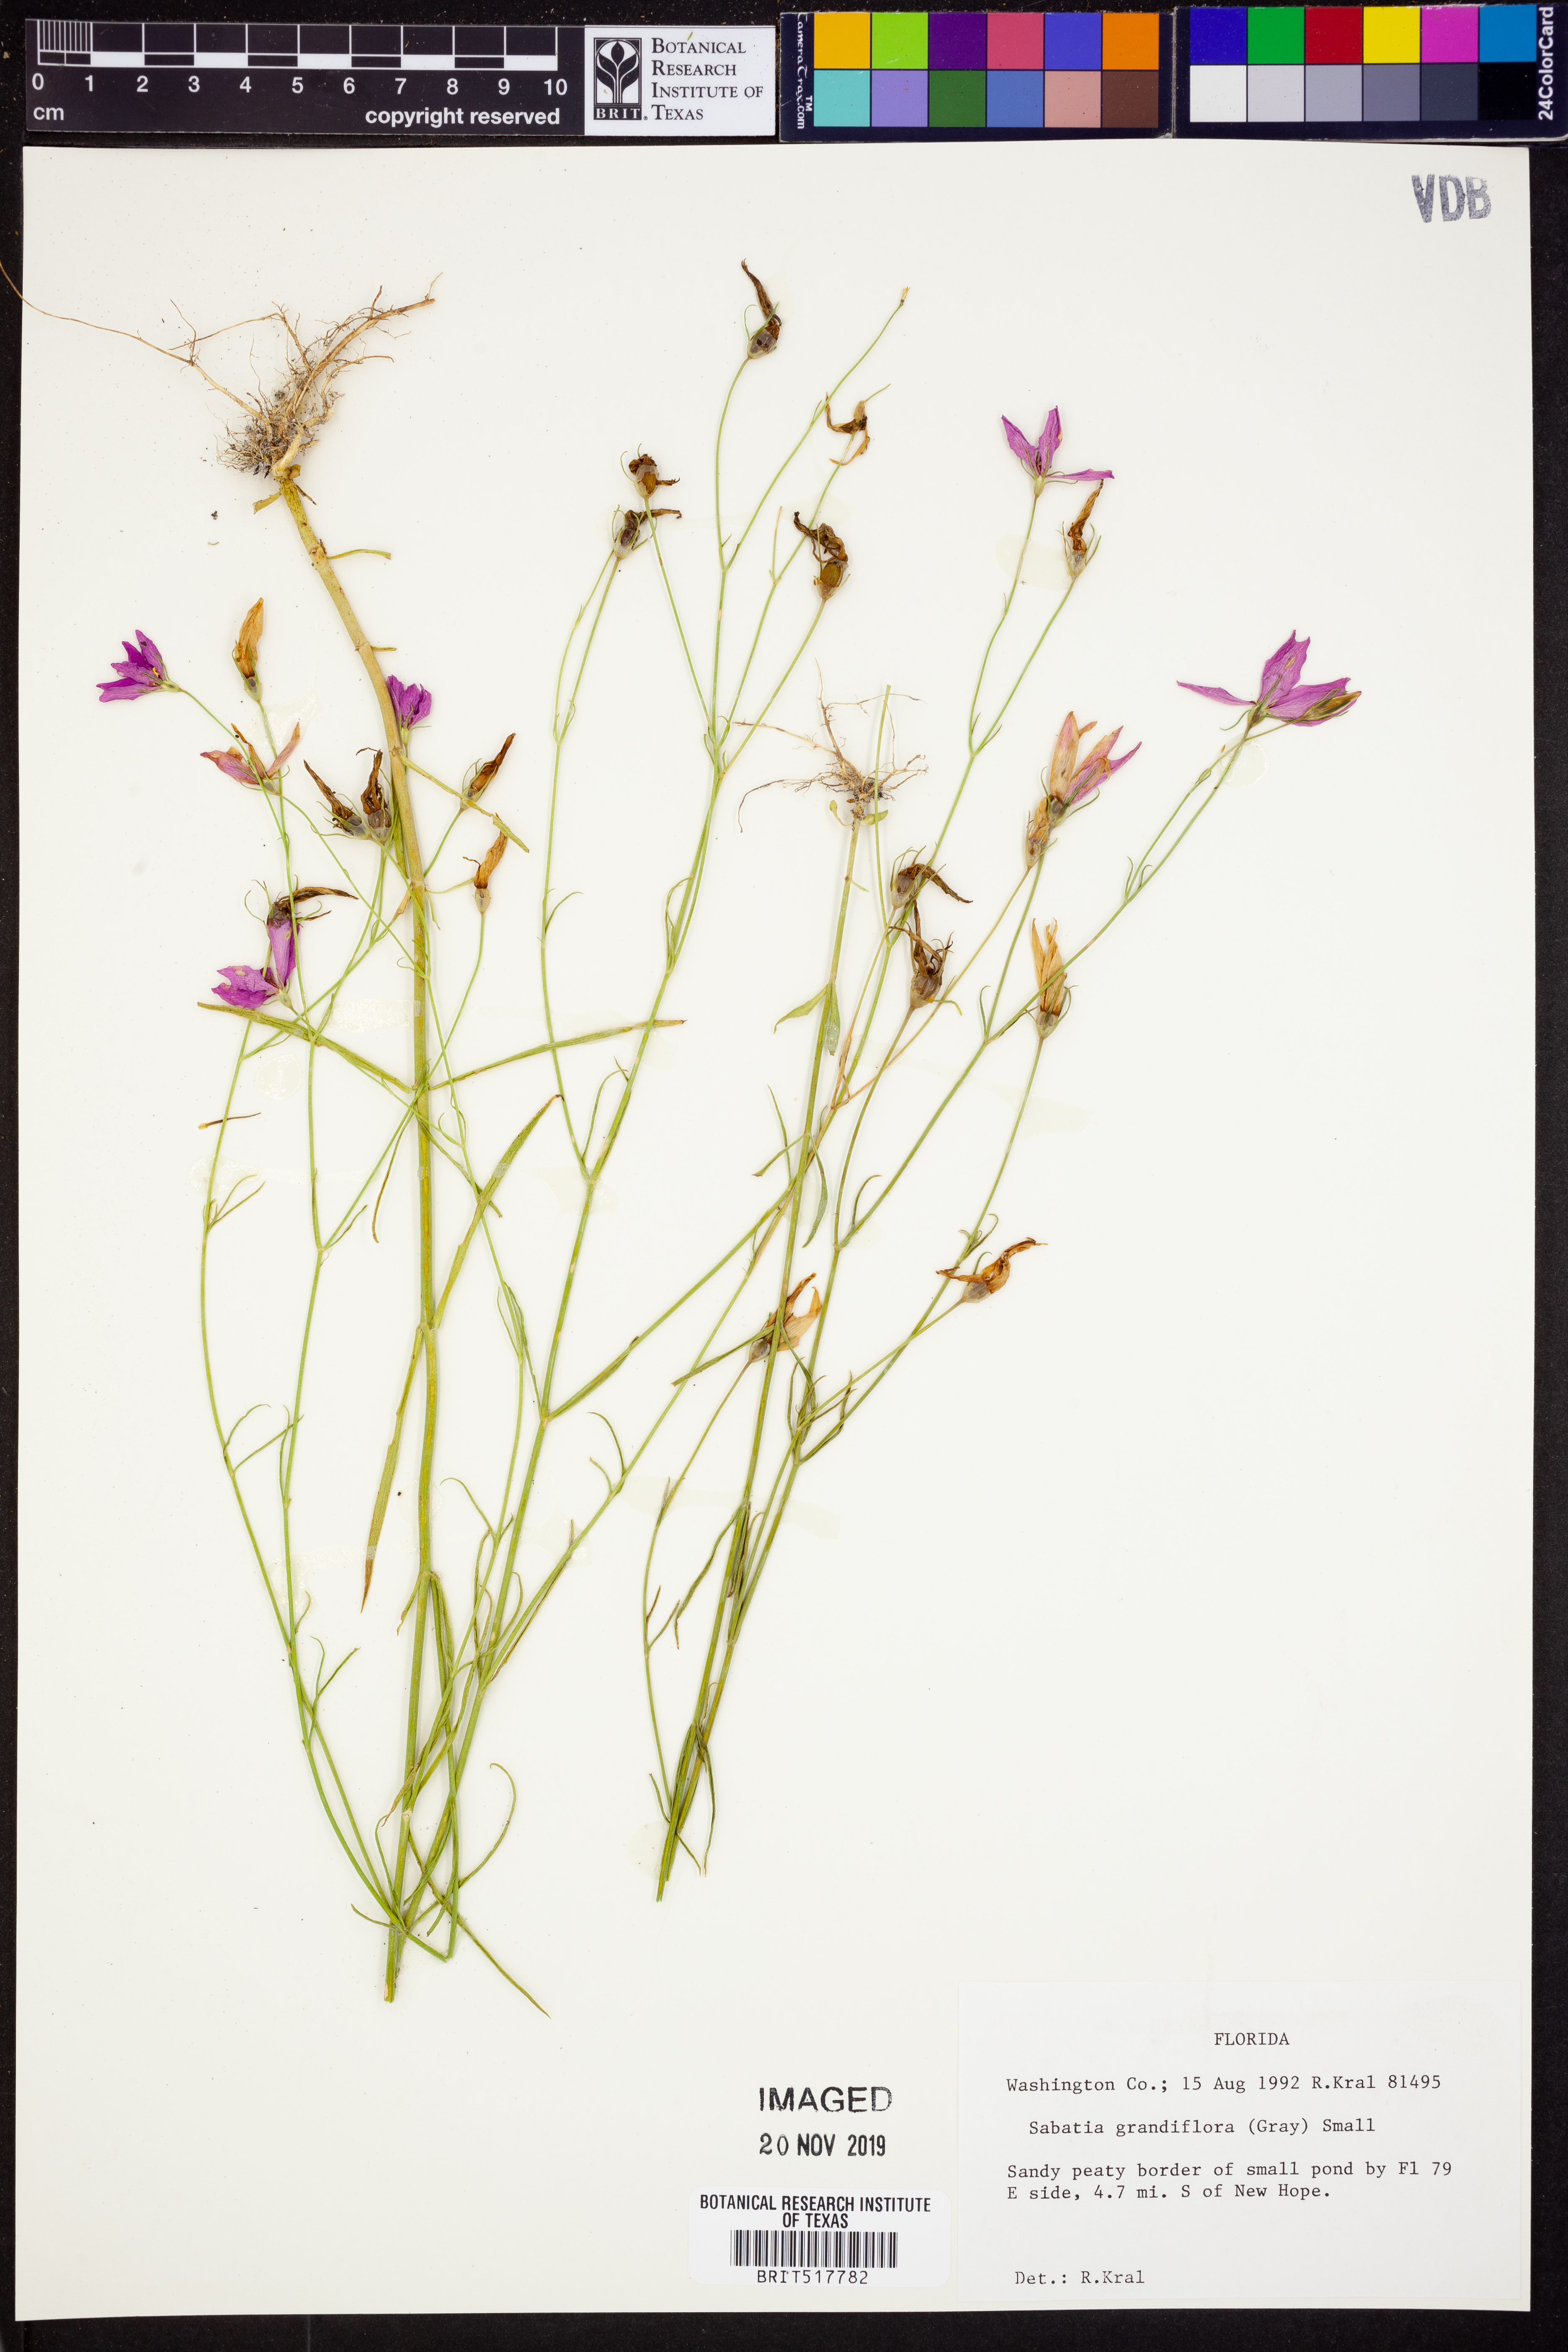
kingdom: Plantae
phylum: Tracheophyta
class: Magnoliopsida
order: Gentianales
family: Gentianaceae
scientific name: Gentianaceae
